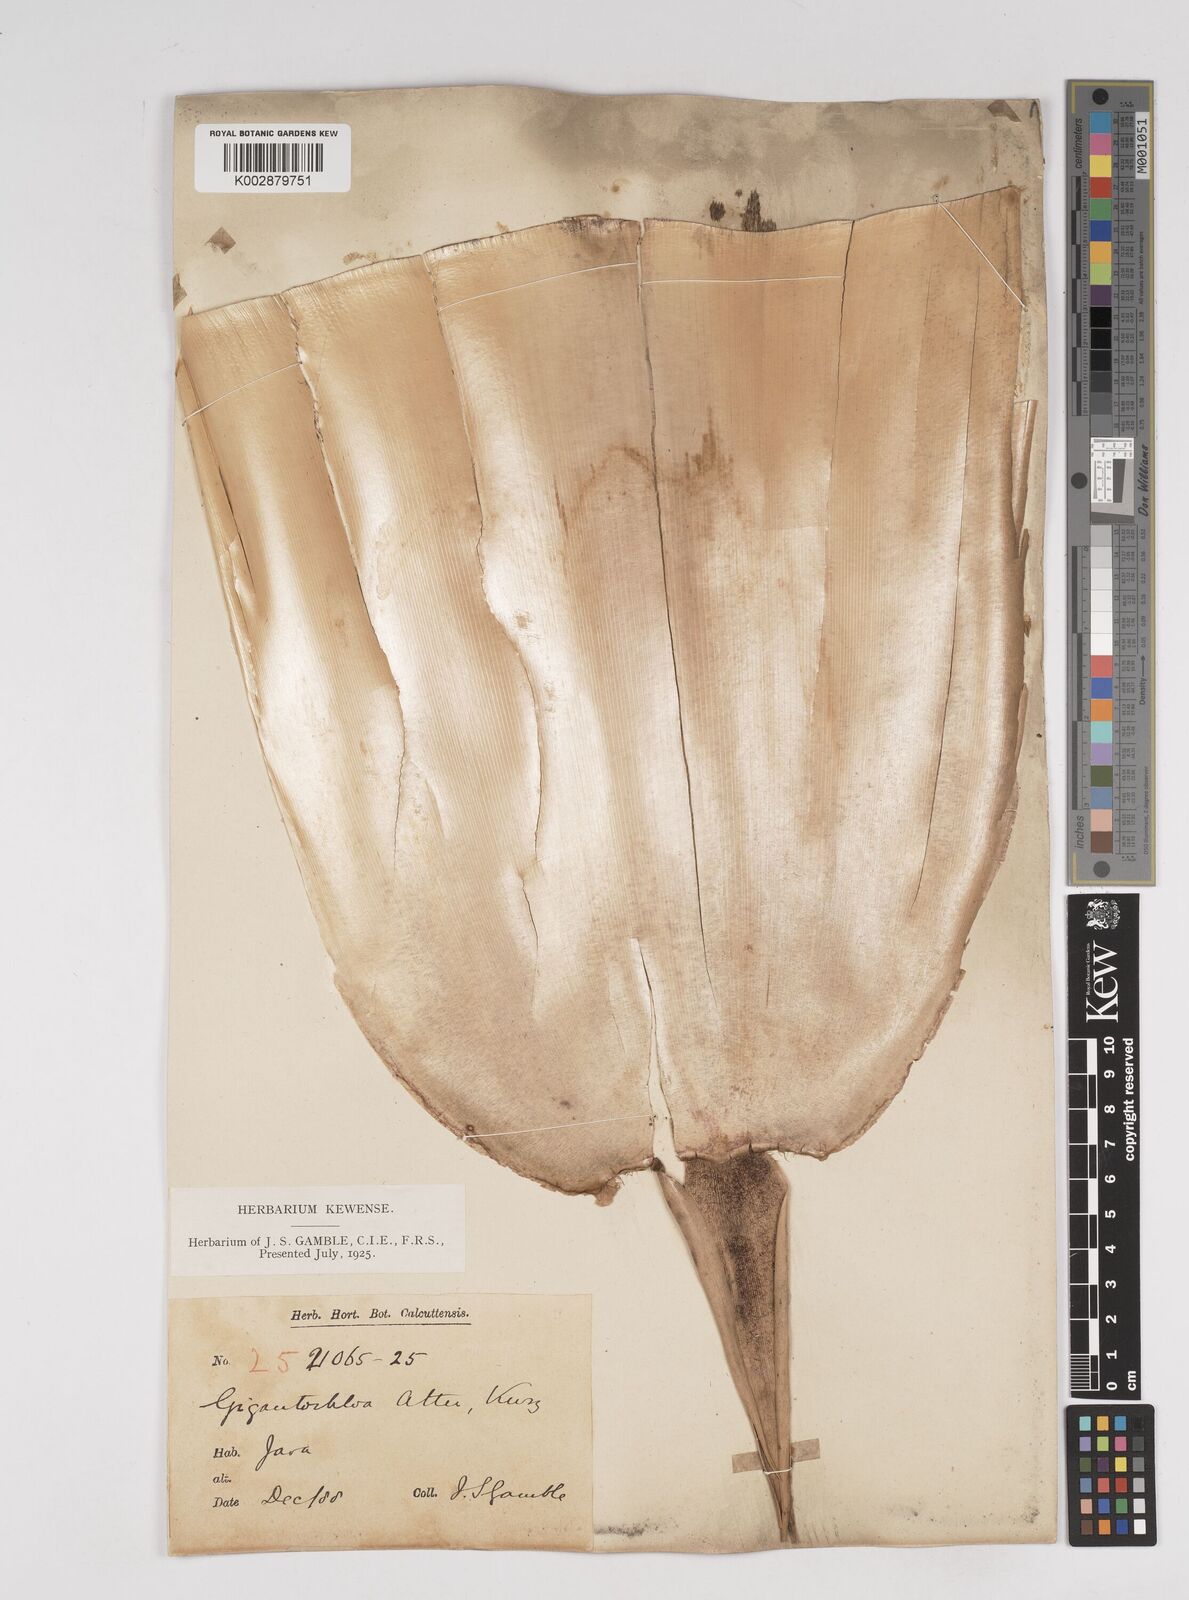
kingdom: Plantae
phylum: Tracheophyta
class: Liliopsida
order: Poales
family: Poaceae
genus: Gigantochloa
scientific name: Gigantochloa atter
